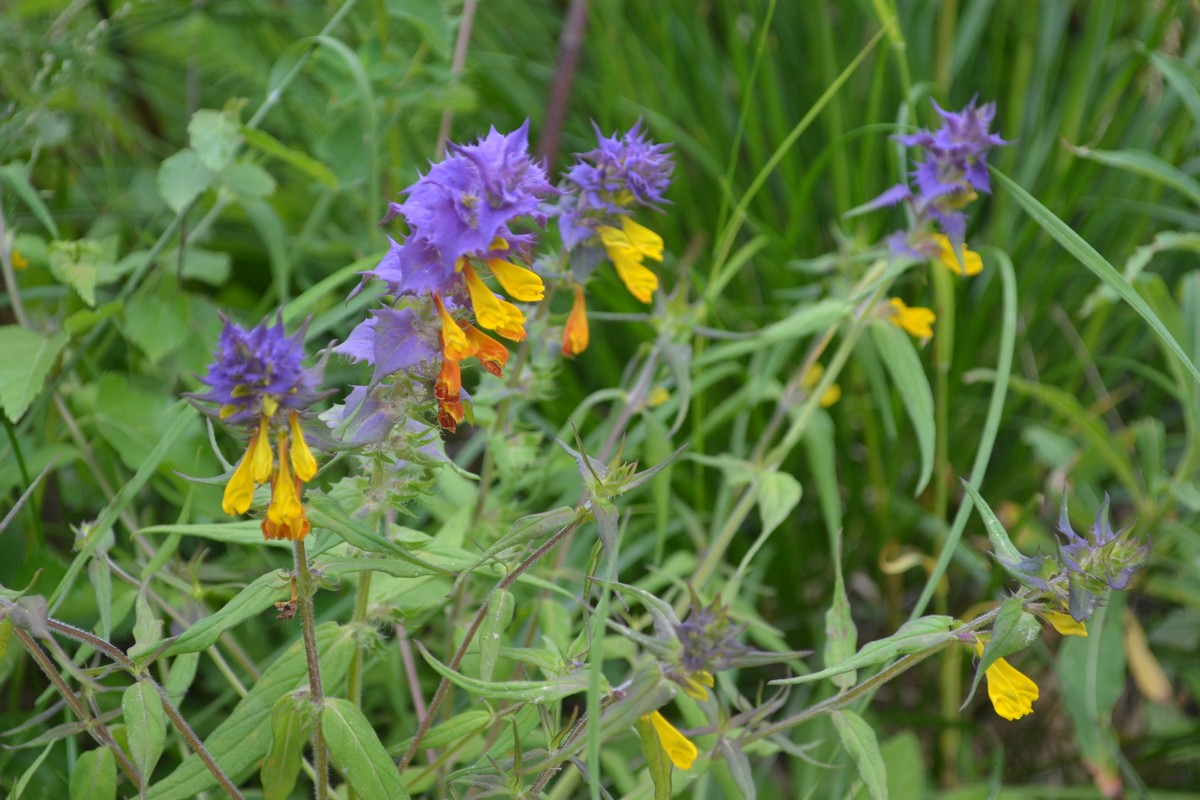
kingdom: Plantae
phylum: Tracheophyta
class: Magnoliopsida
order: Lamiales
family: Orobanchaceae
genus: Melampyrum
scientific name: Melampyrum nemorosum
